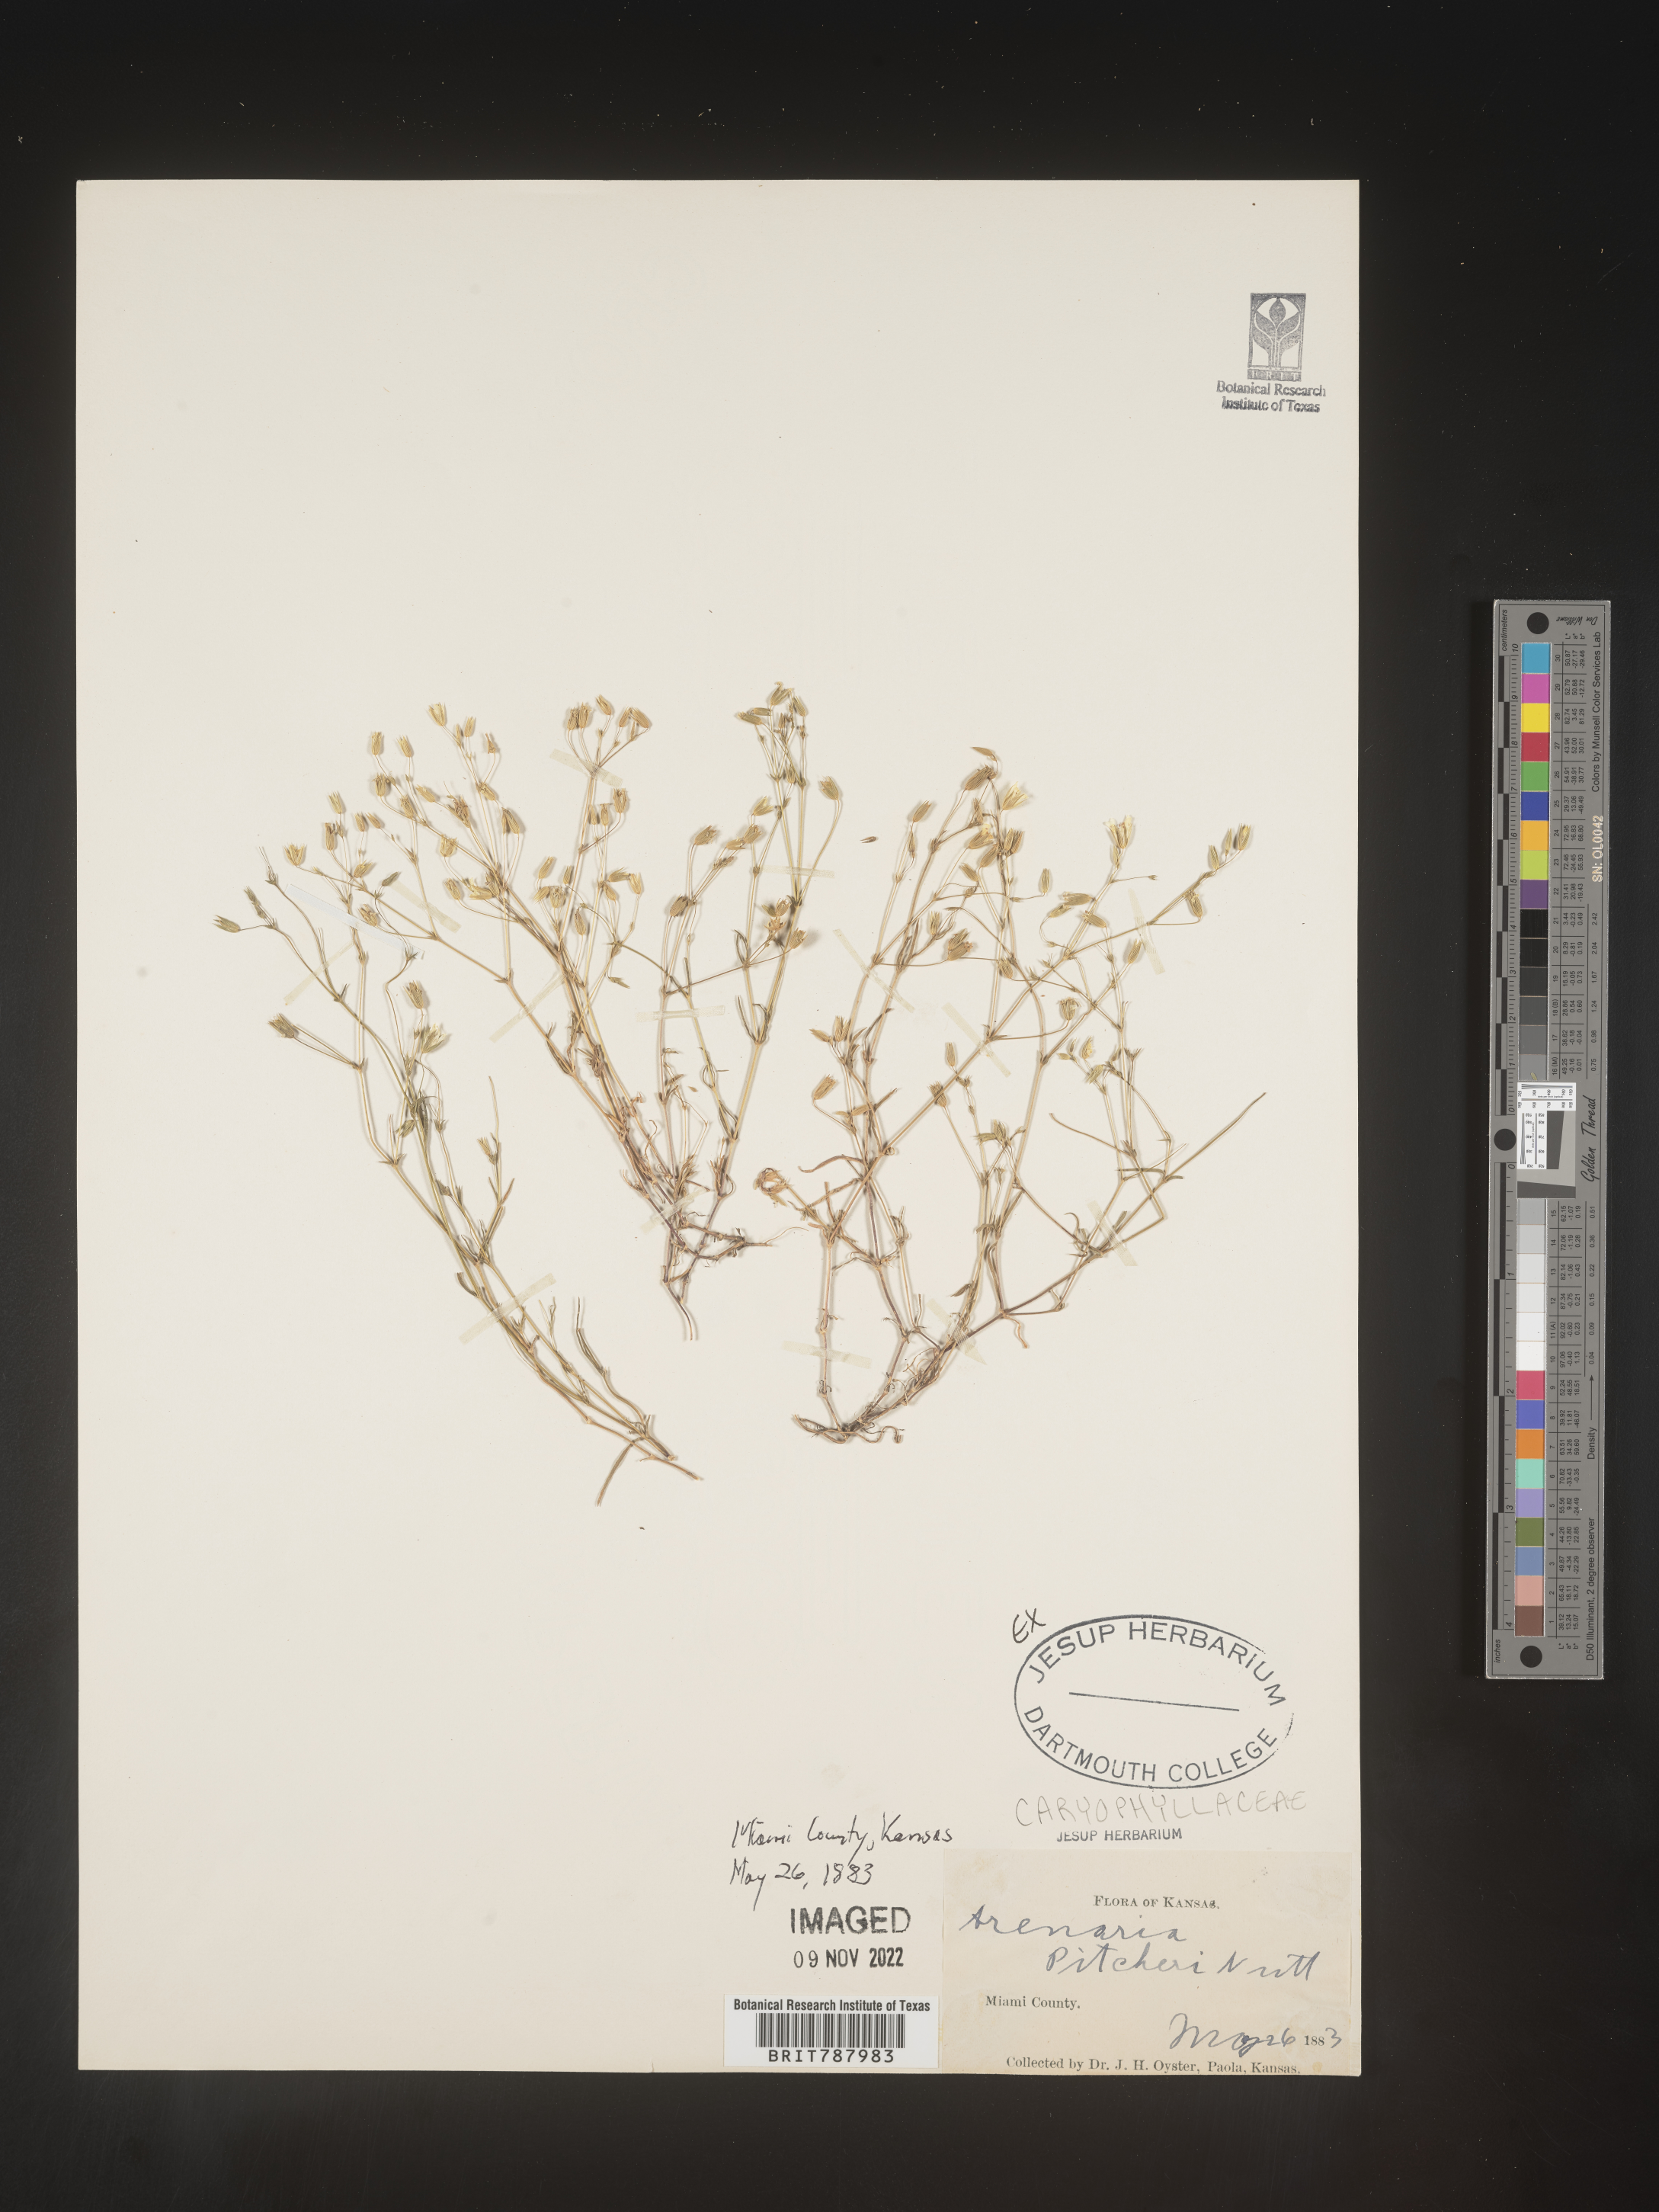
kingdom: Plantae
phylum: Tracheophyta
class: Magnoliopsida
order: Caryophyllales
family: Caryophyllaceae
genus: Arenaria
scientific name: Arenaria
